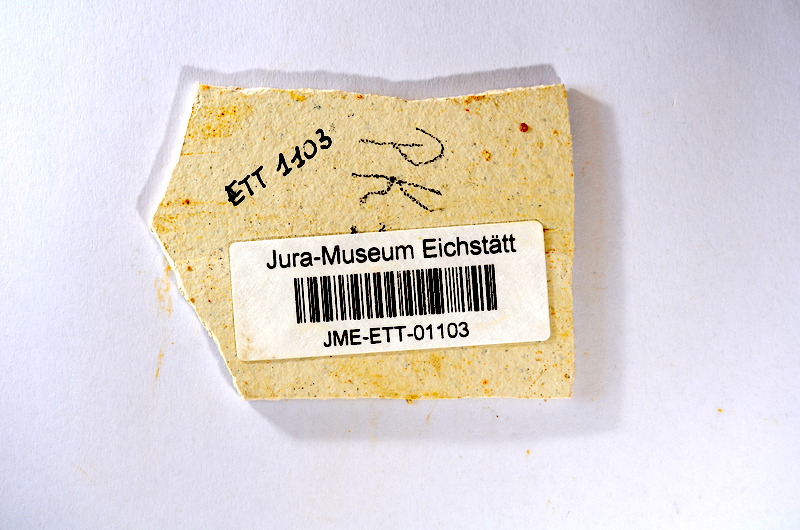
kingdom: Animalia
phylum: Chordata
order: Salmoniformes
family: Orthogonikleithridae
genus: Orthogonikleithrus
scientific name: Orthogonikleithrus hoelli
